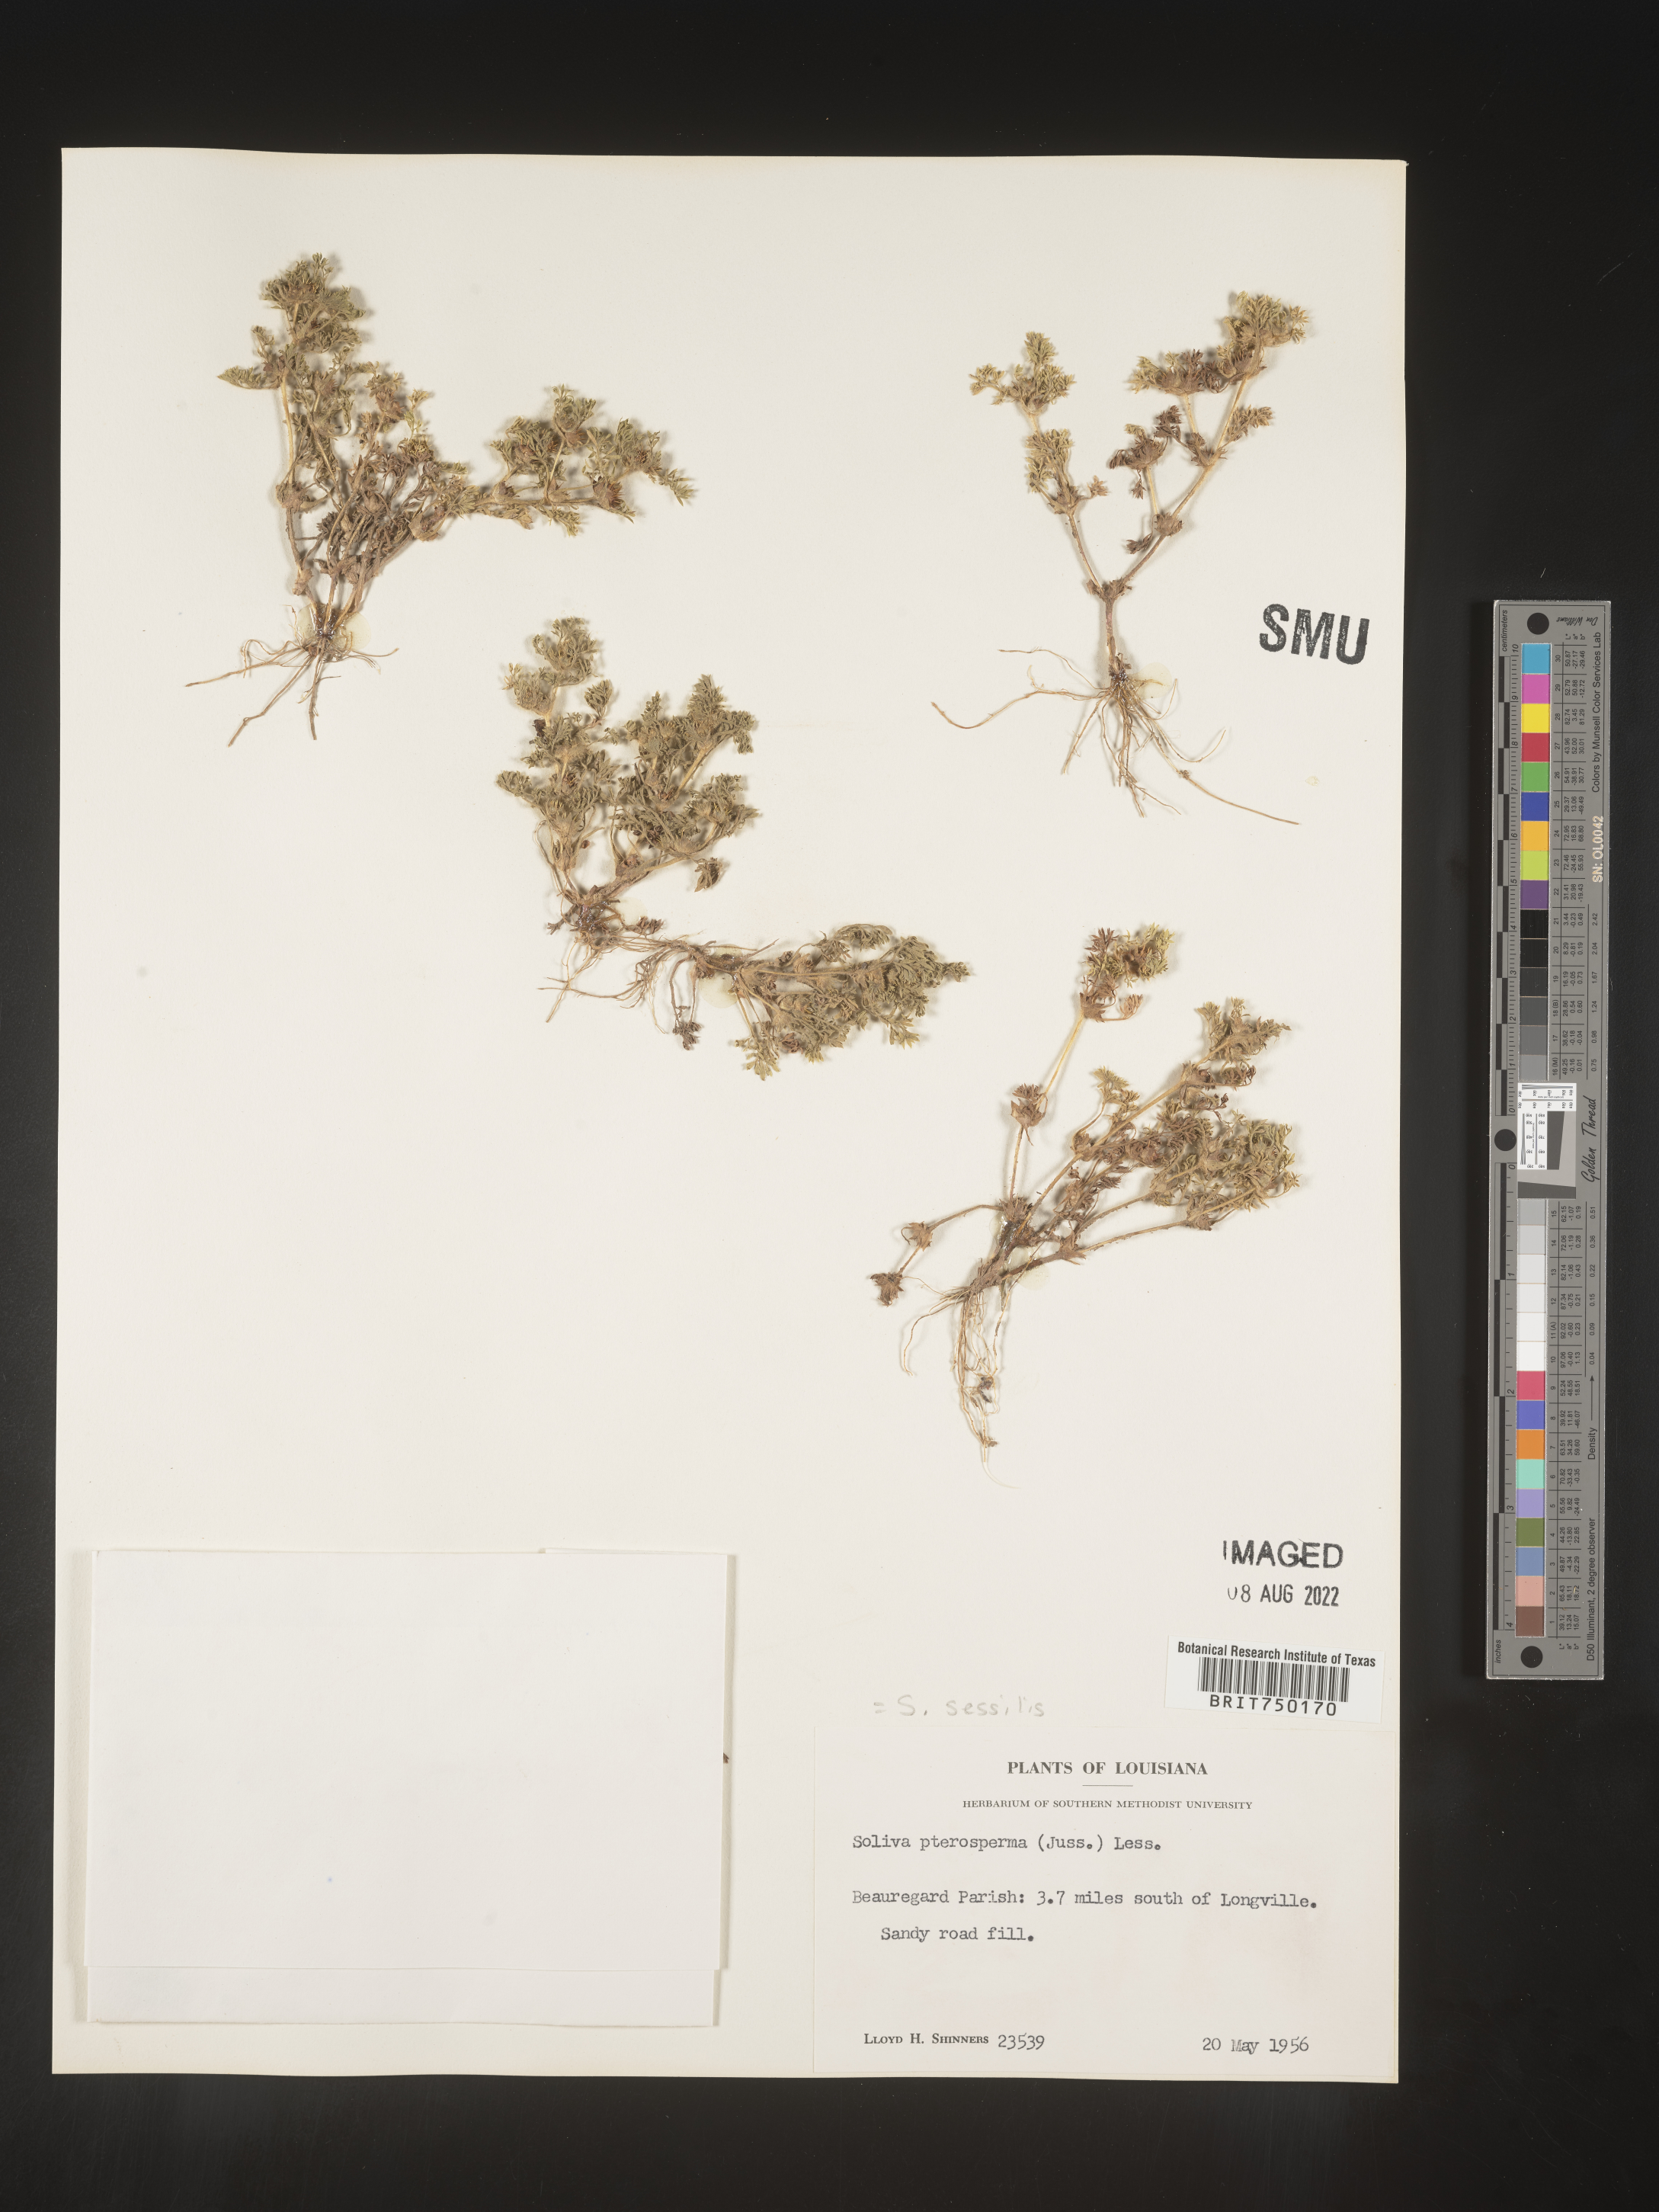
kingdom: Plantae
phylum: Tracheophyta
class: Magnoliopsida
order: Asterales
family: Asteraceae
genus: Soliva
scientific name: Soliva sessilis
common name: Field burrweed
